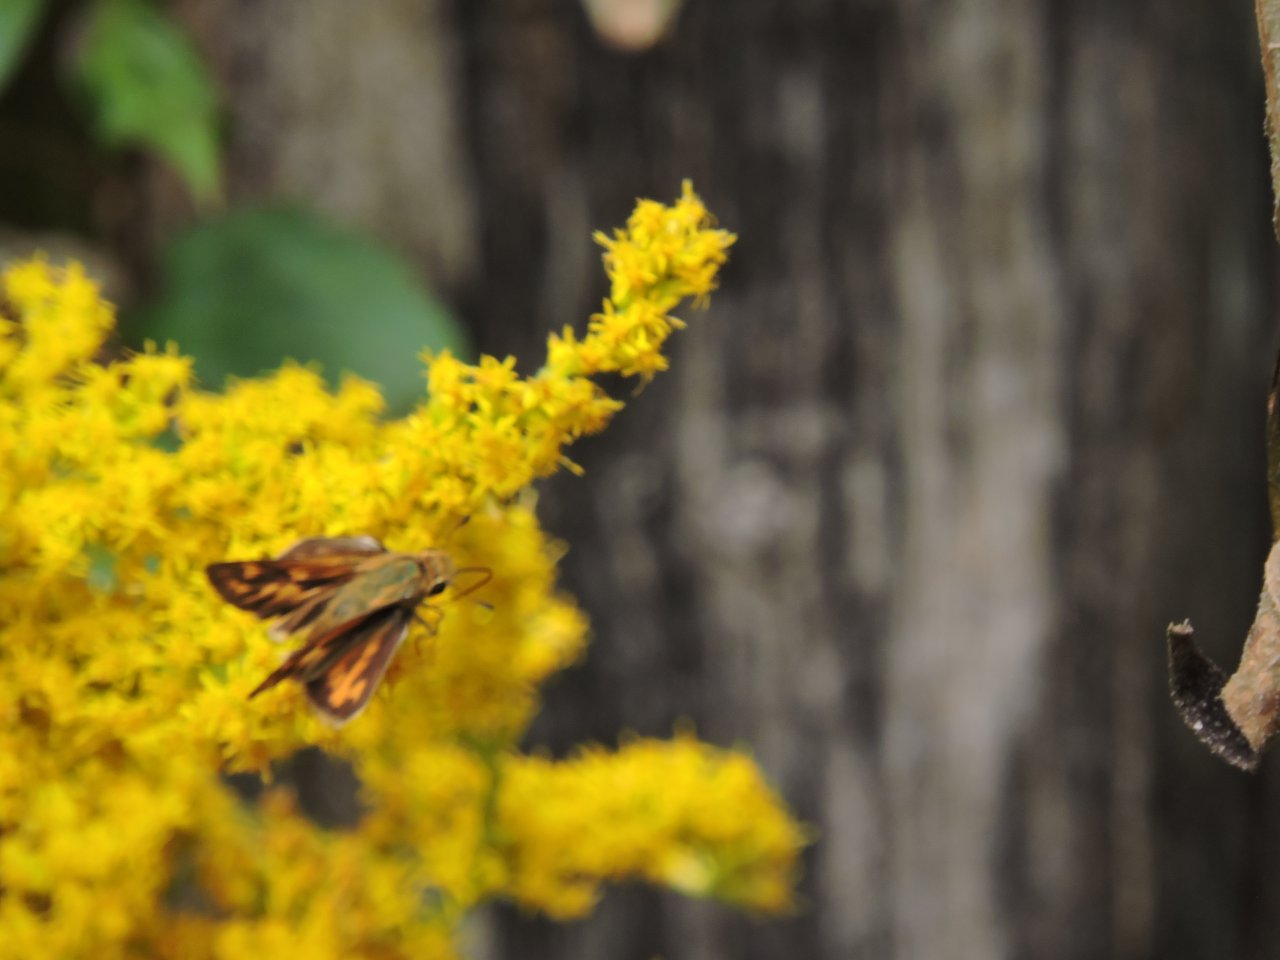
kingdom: Animalia
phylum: Arthropoda
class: Insecta
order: Lepidoptera
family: Hesperiidae
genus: Hylephila
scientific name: Hylephila phyleus
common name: Fiery Skipper
